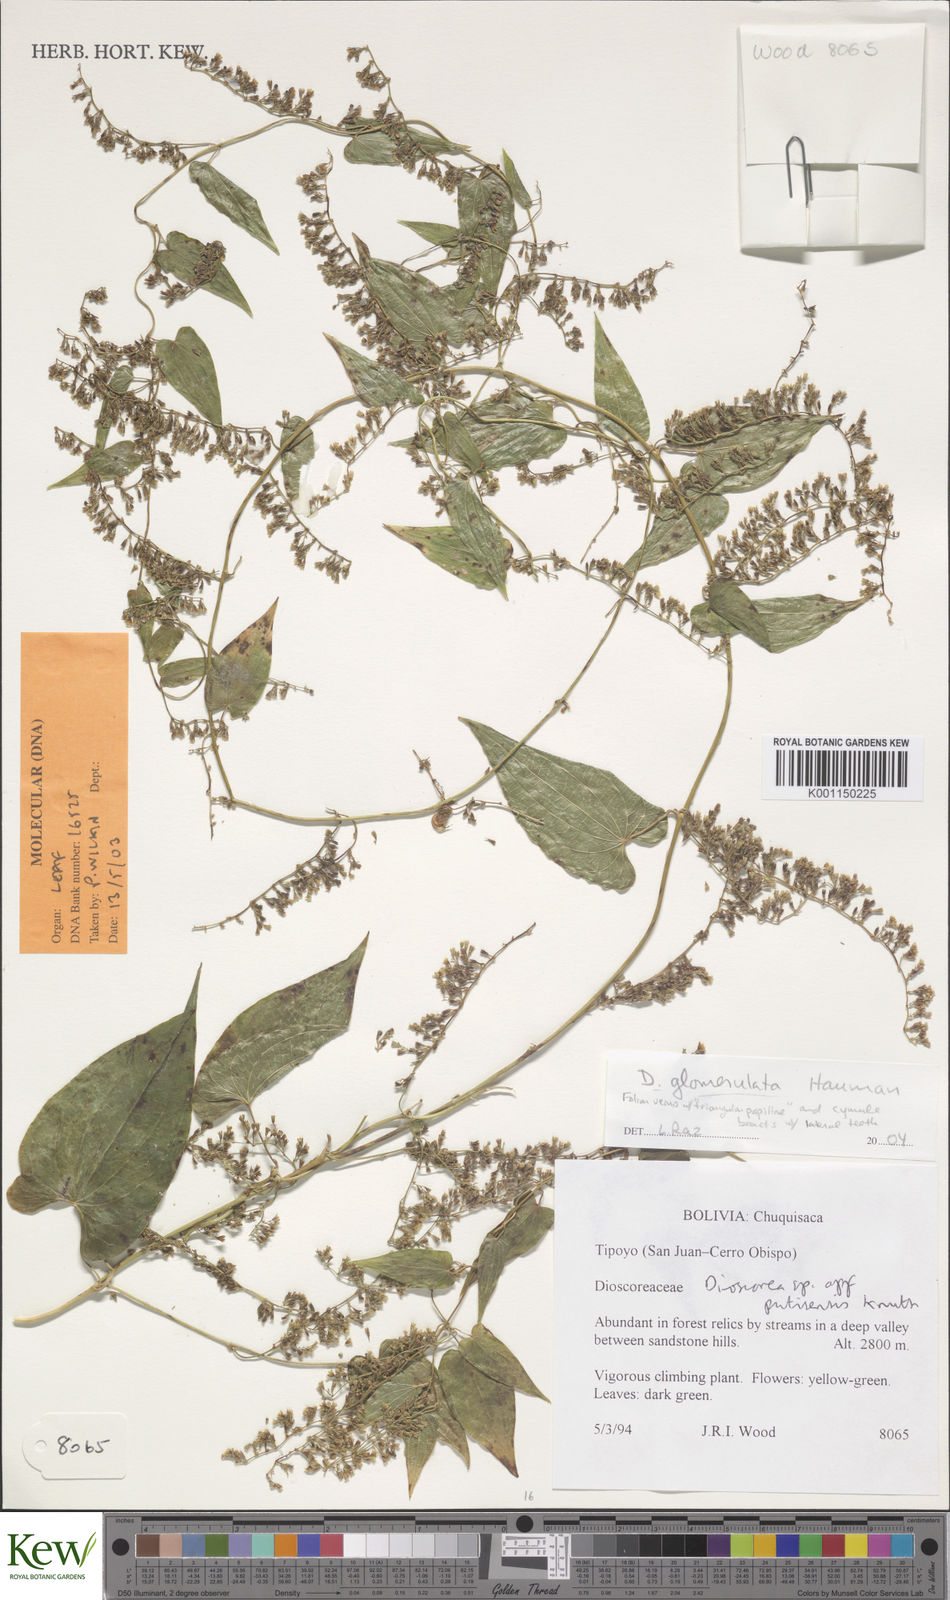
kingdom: Plantae
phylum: Tracheophyta
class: Liliopsida
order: Dioscoreales
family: Dioscoreaceae
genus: Dioscorea
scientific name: Dioscorea glomerulata
